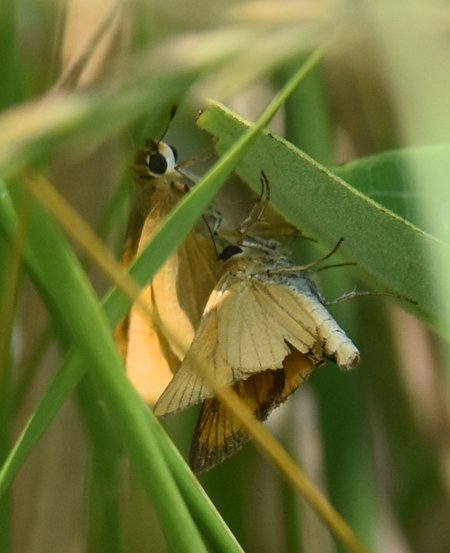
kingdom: Animalia
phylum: Arthropoda
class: Insecta
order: Lepidoptera
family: Hesperiidae
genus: Atrytone
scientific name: Atrytone delaware
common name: Delaware Skipper
